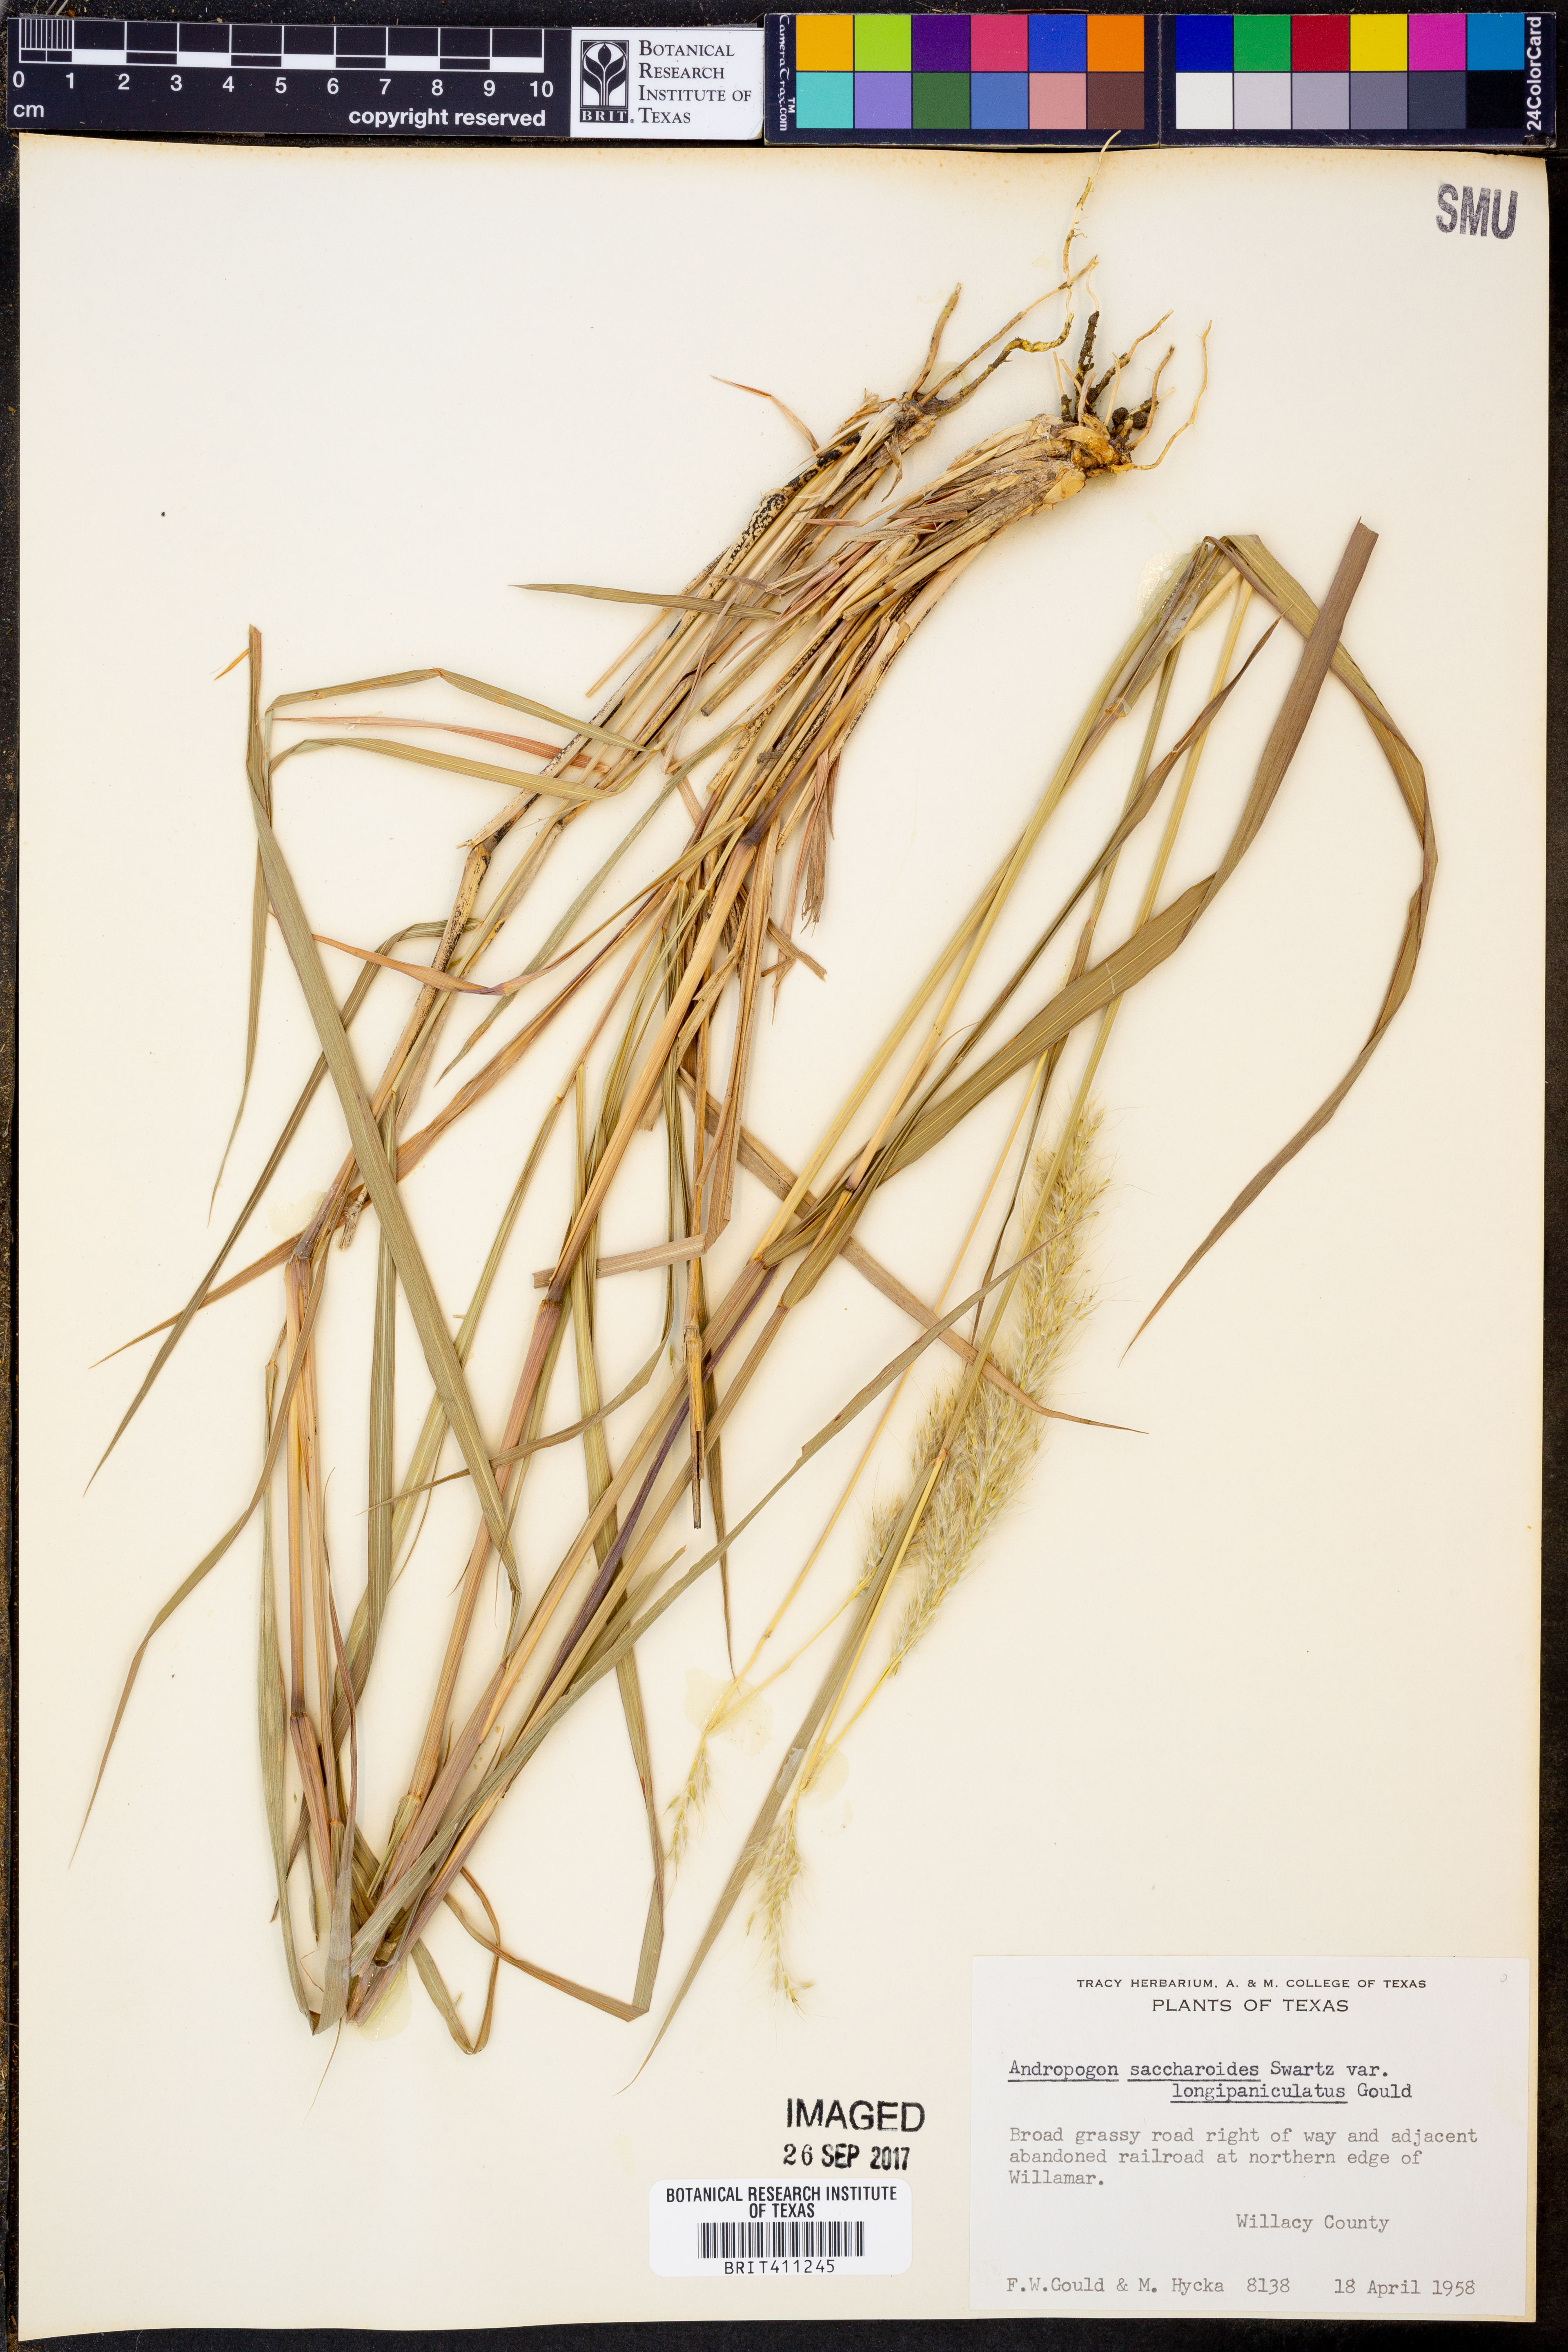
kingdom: Plantae
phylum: Tracheophyta
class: Liliopsida
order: Poales
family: Poaceae
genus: Bothriochloa
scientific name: Bothriochloa longipaniculata
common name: Longspike silver bluestem
